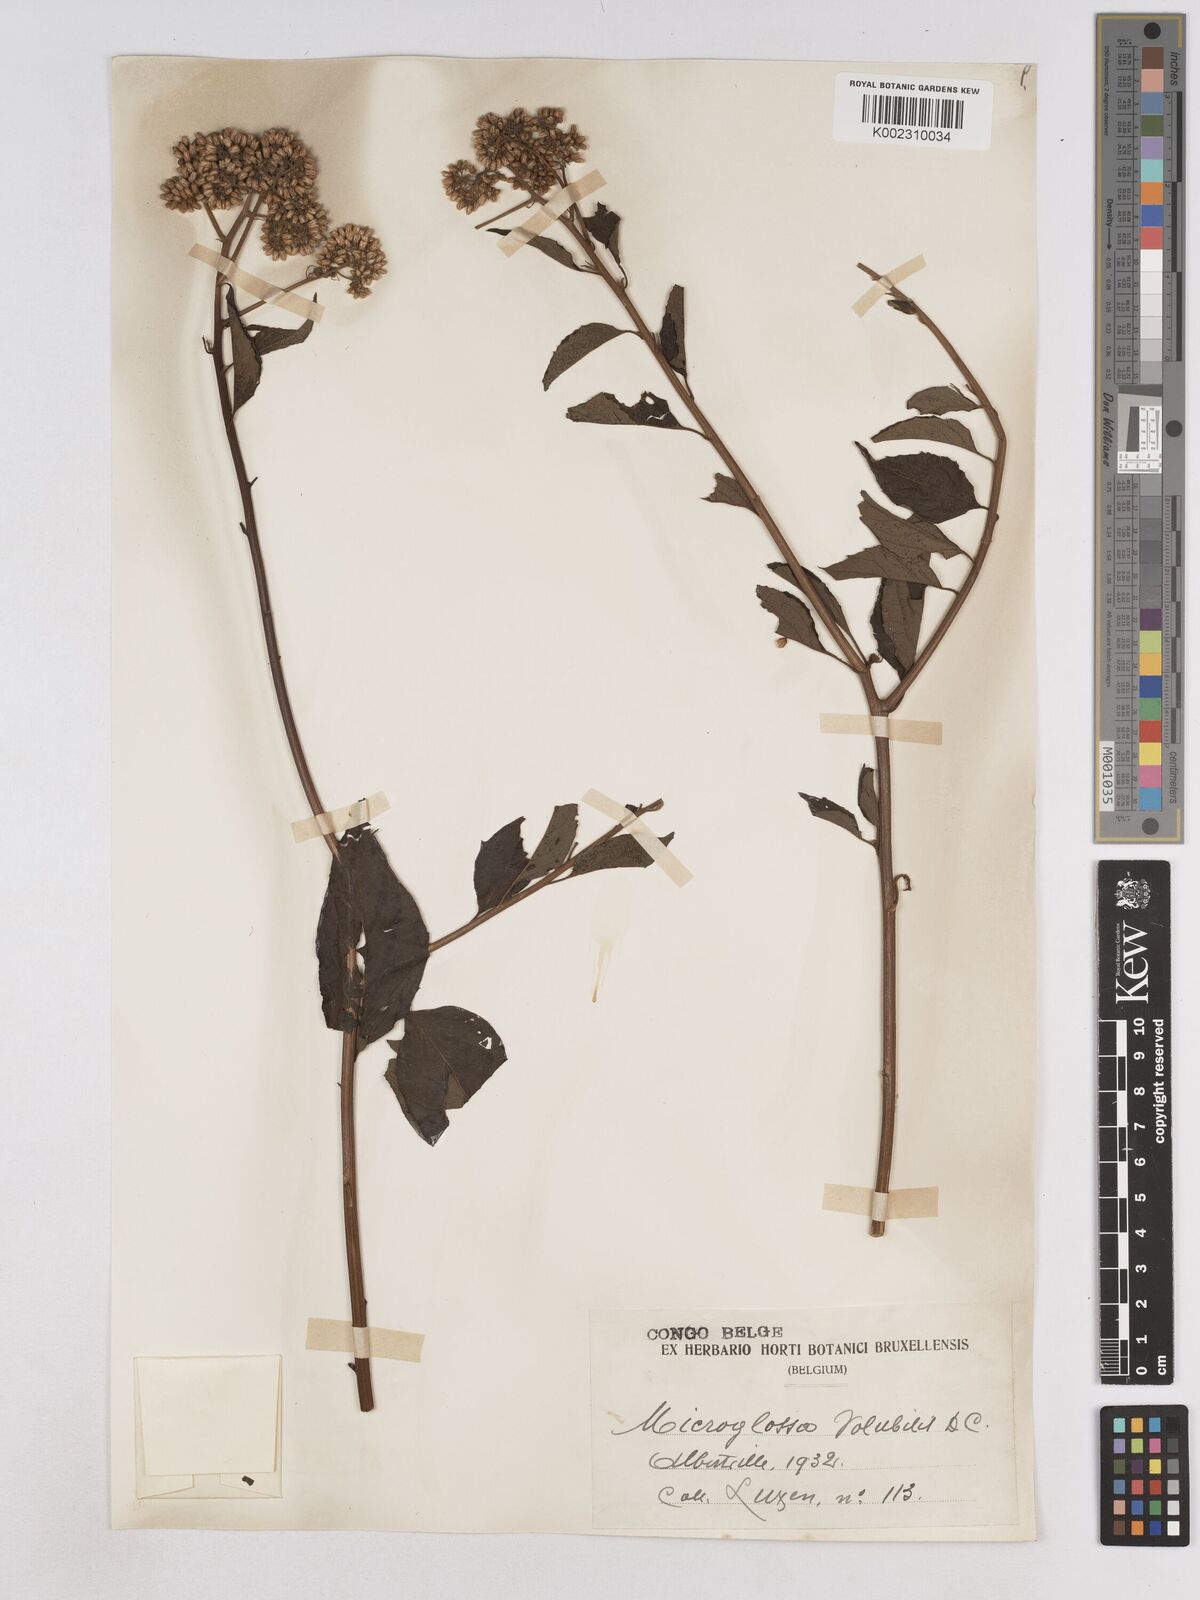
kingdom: Plantae
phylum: Tracheophyta
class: Magnoliopsida
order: Asterales
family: Asteraceae
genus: Microglossa
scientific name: Microglossa pyrifolia
